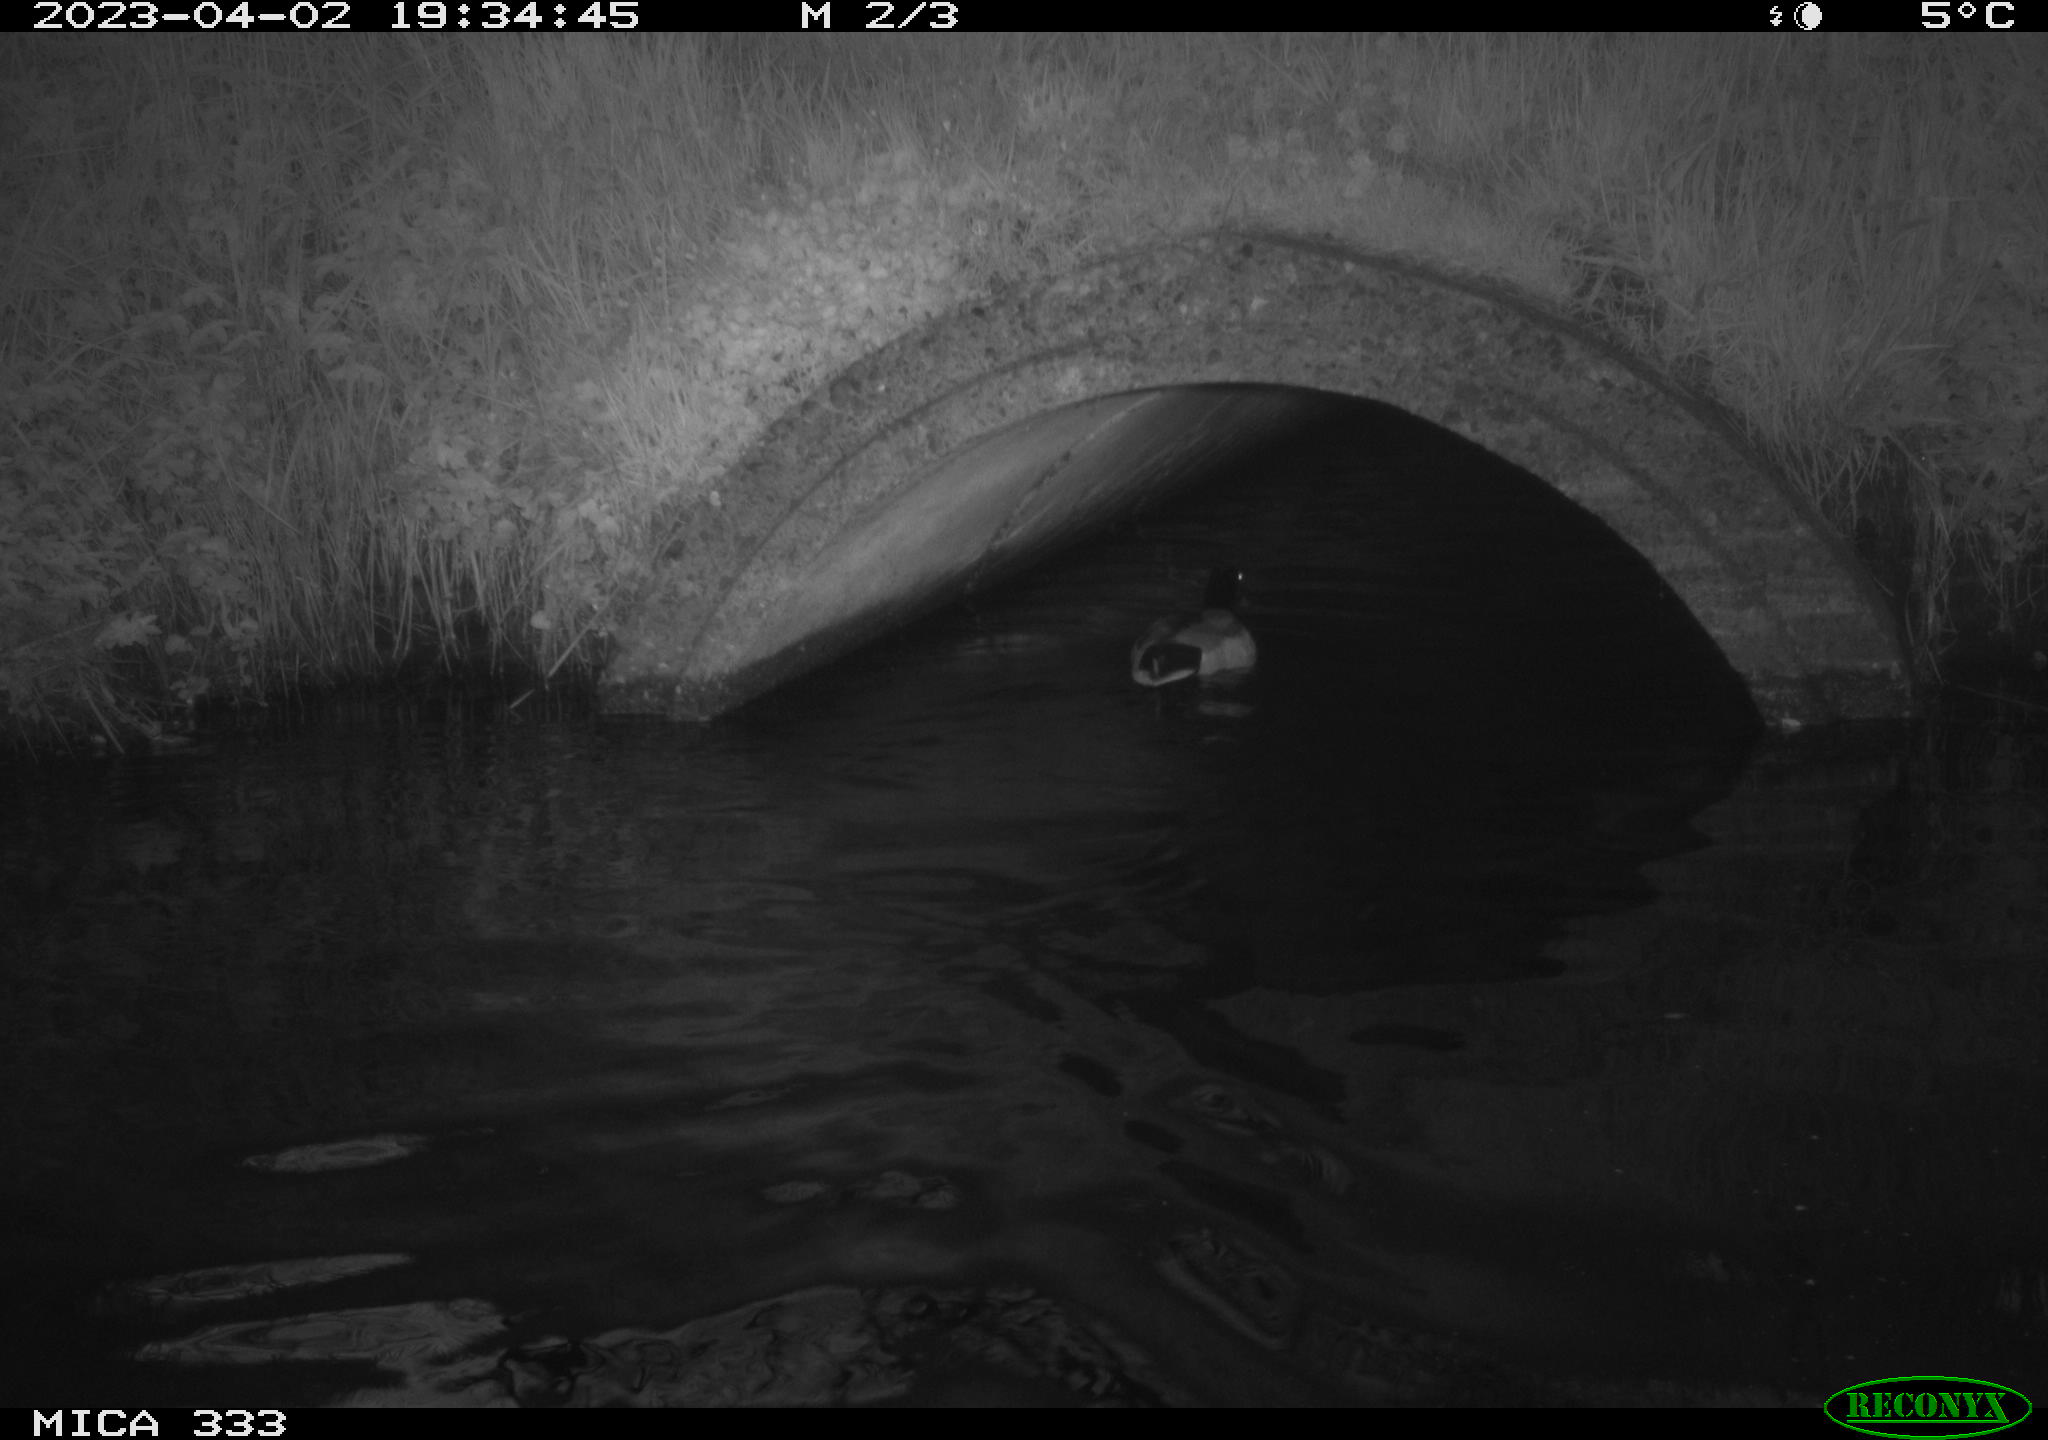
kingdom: Animalia
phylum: Chordata
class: Aves
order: Anseriformes
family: Anatidae
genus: Anas
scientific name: Anas
